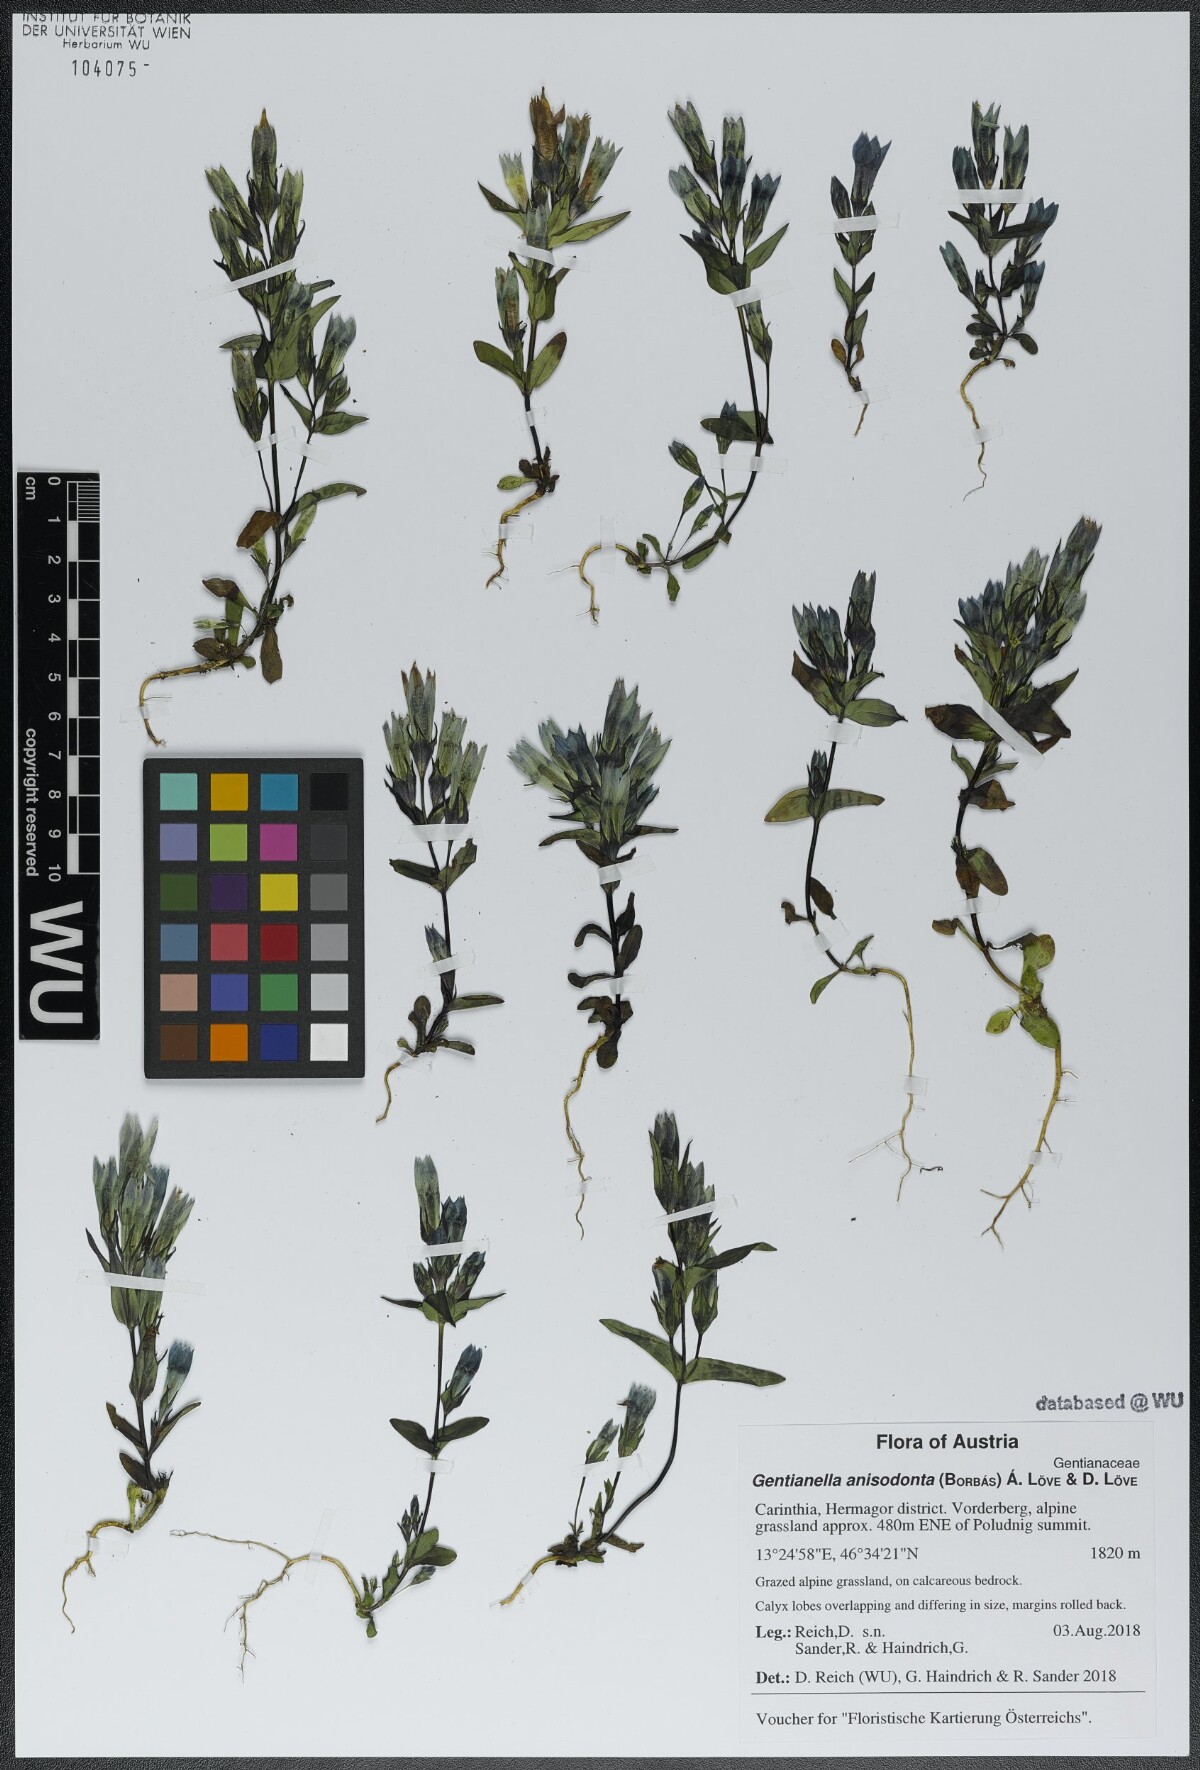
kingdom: Plantae
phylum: Tracheophyta
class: Magnoliopsida
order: Gentianales
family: Gentianaceae
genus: Gentianella
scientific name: Gentianella anisodonta
